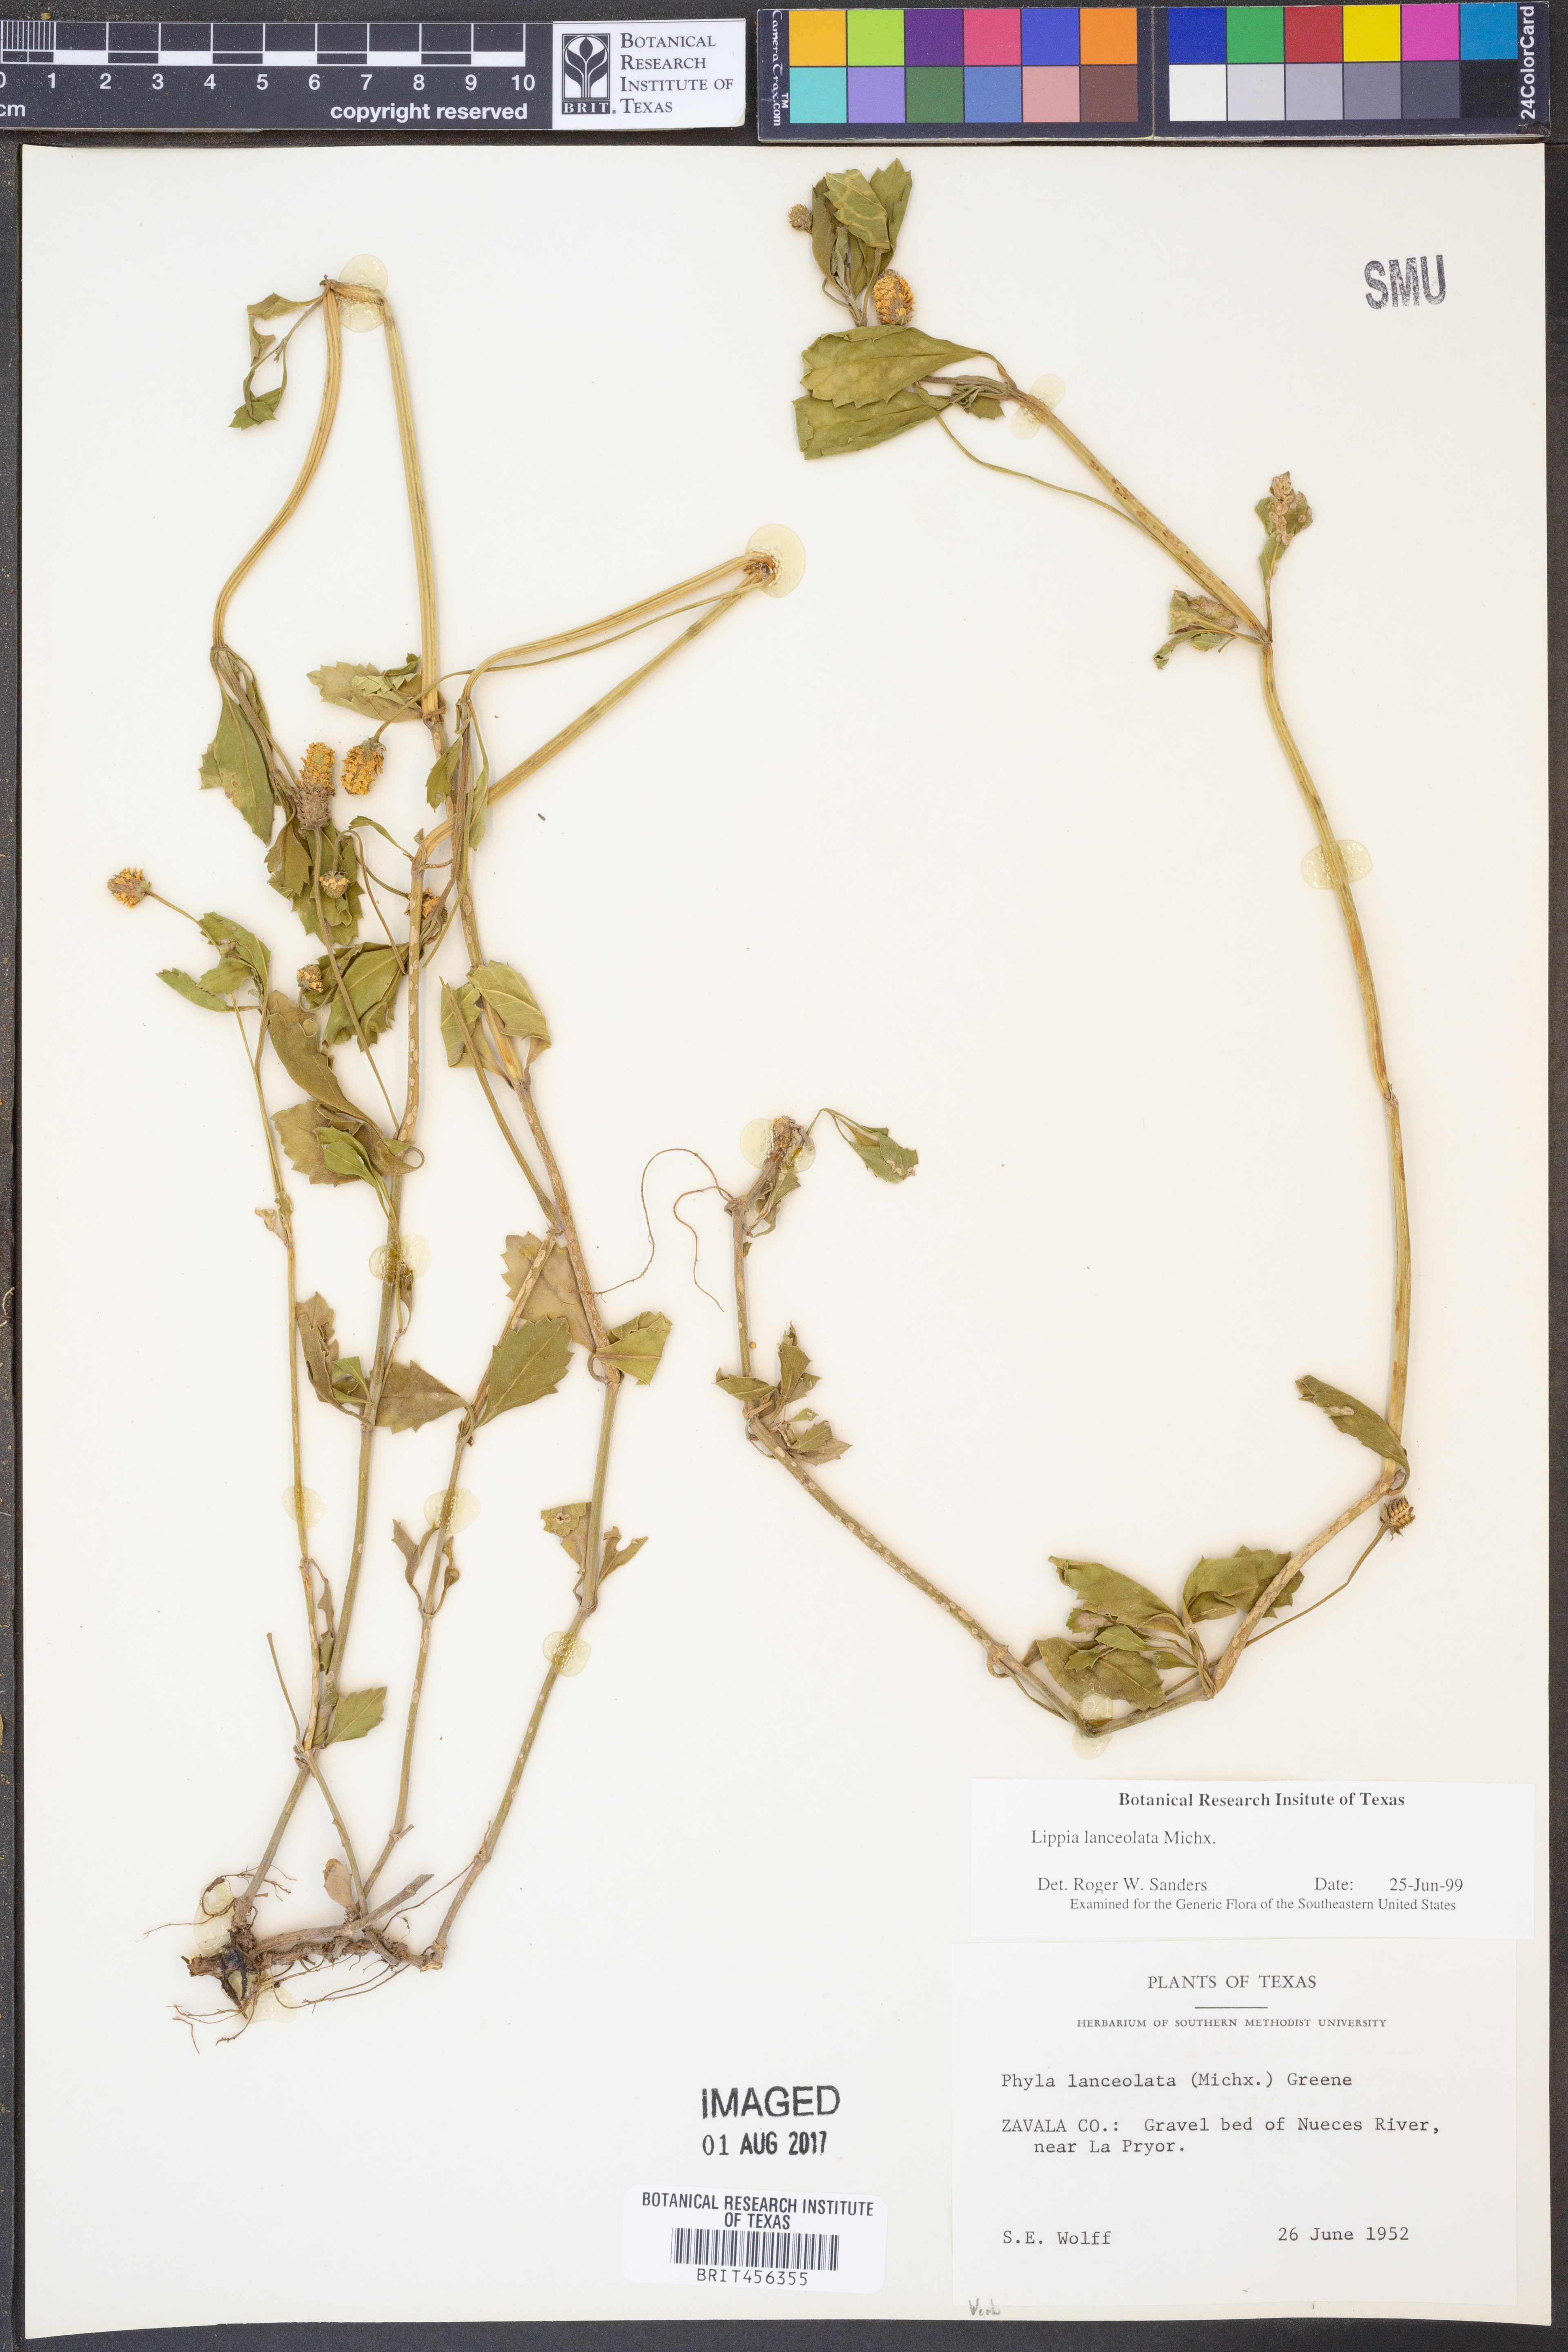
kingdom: Plantae
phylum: Tracheophyta
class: Magnoliopsida
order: Lamiales
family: Verbenaceae
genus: Phyla
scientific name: Phyla lanceolata
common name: Northern fogfruit
